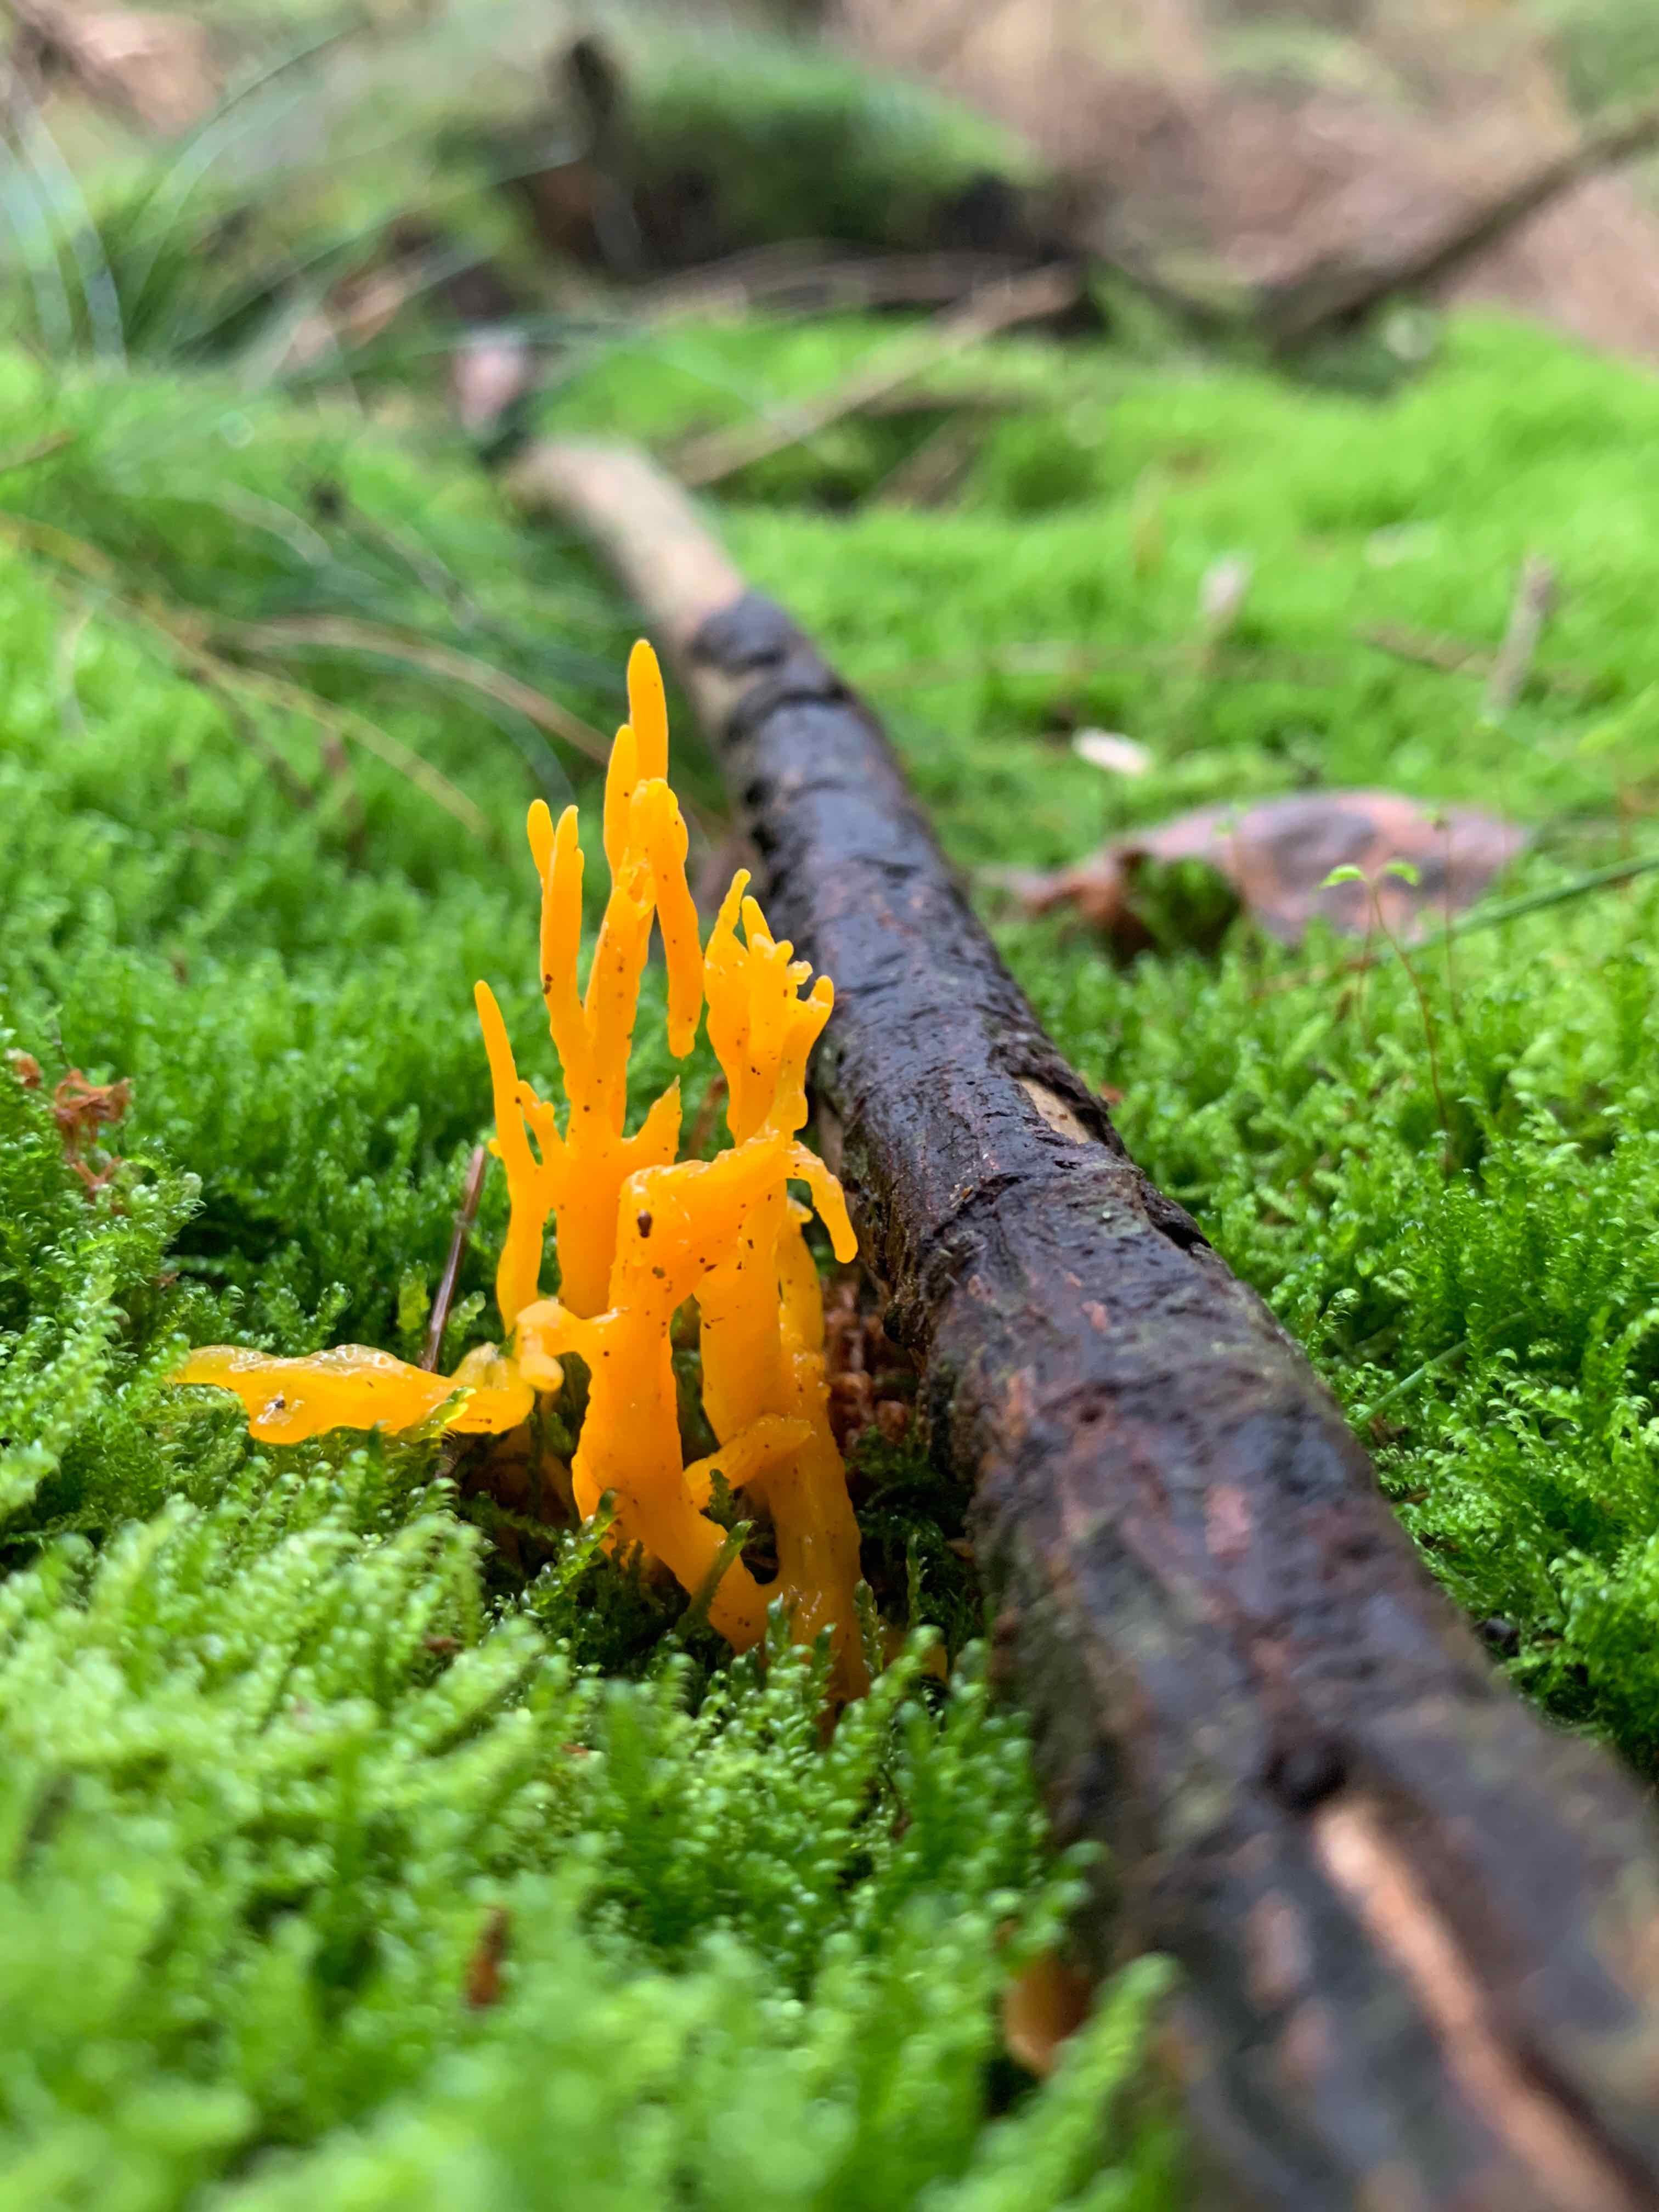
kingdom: Fungi
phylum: Basidiomycota
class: Dacrymycetes
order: Dacrymycetales
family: Dacrymycetaceae
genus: Calocera
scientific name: Calocera viscosa
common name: almindelig guldgaffel
